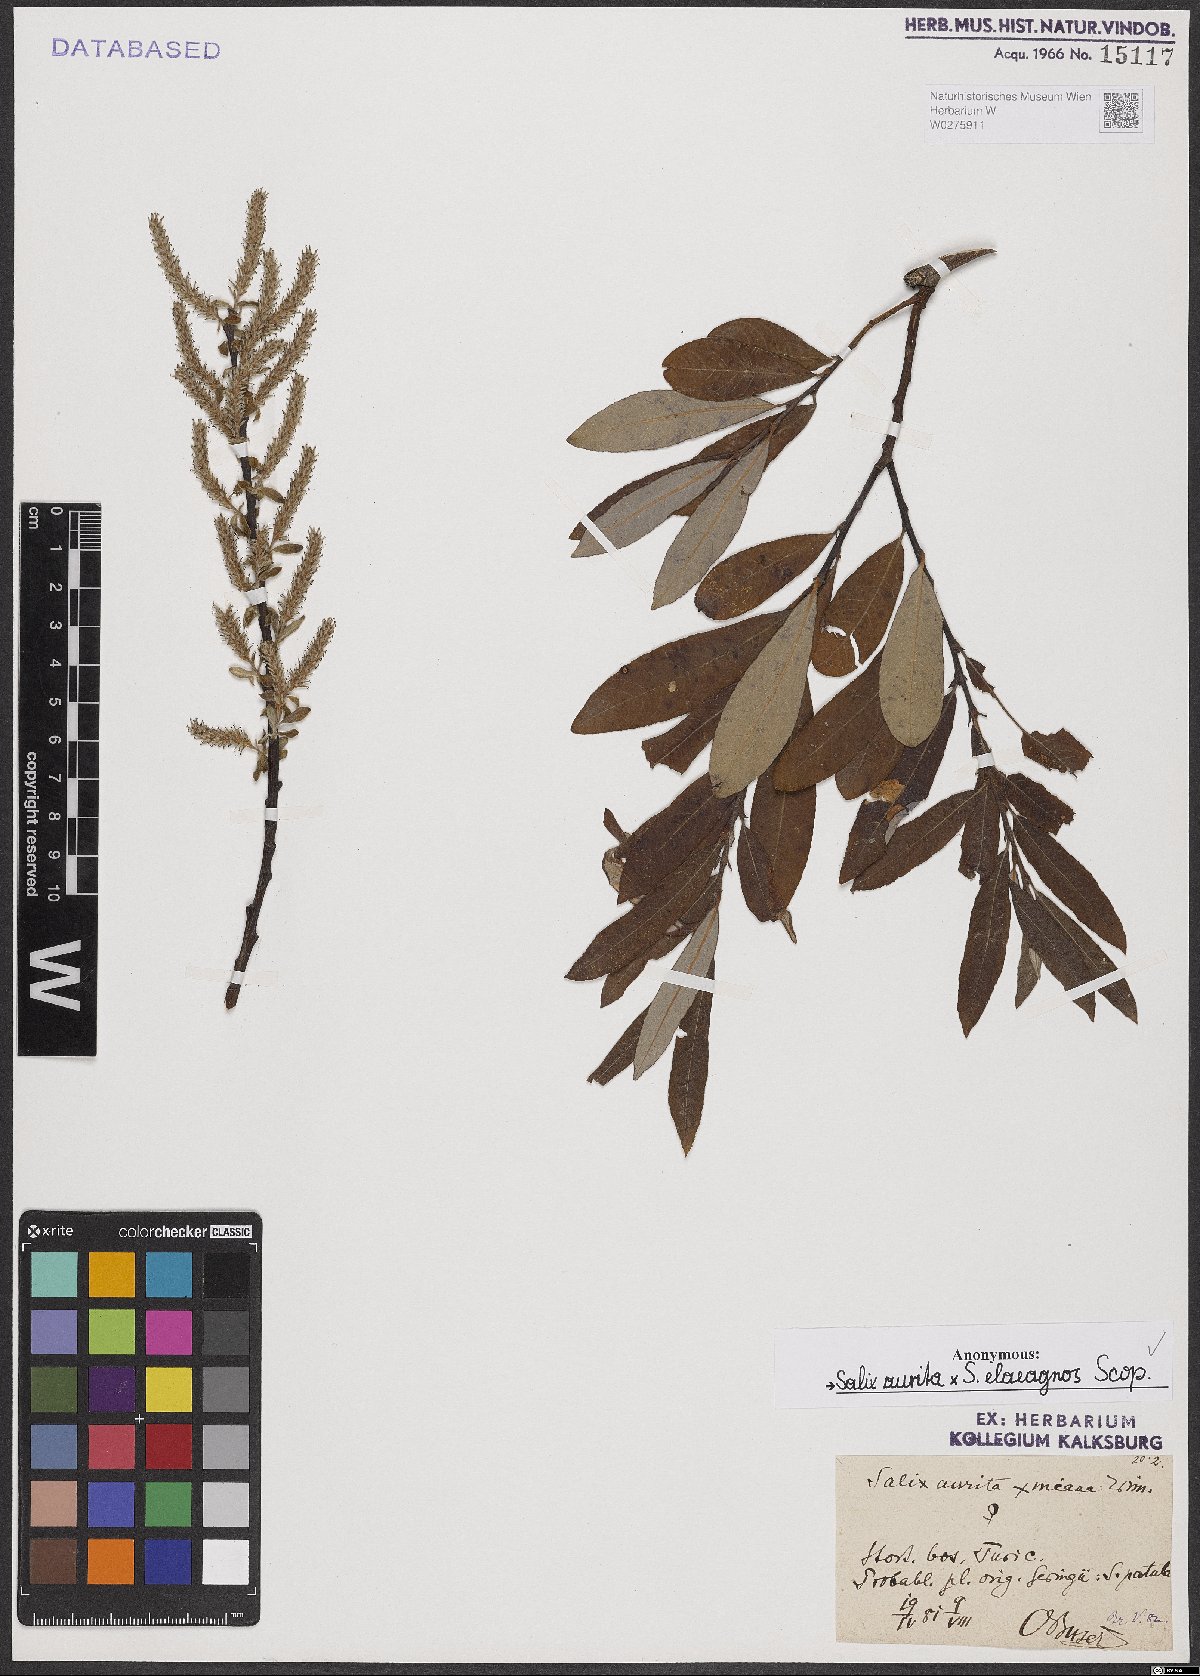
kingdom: Plantae
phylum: Tracheophyta
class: Magnoliopsida
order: Malpighiales
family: Salicaceae
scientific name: Salicaceae
